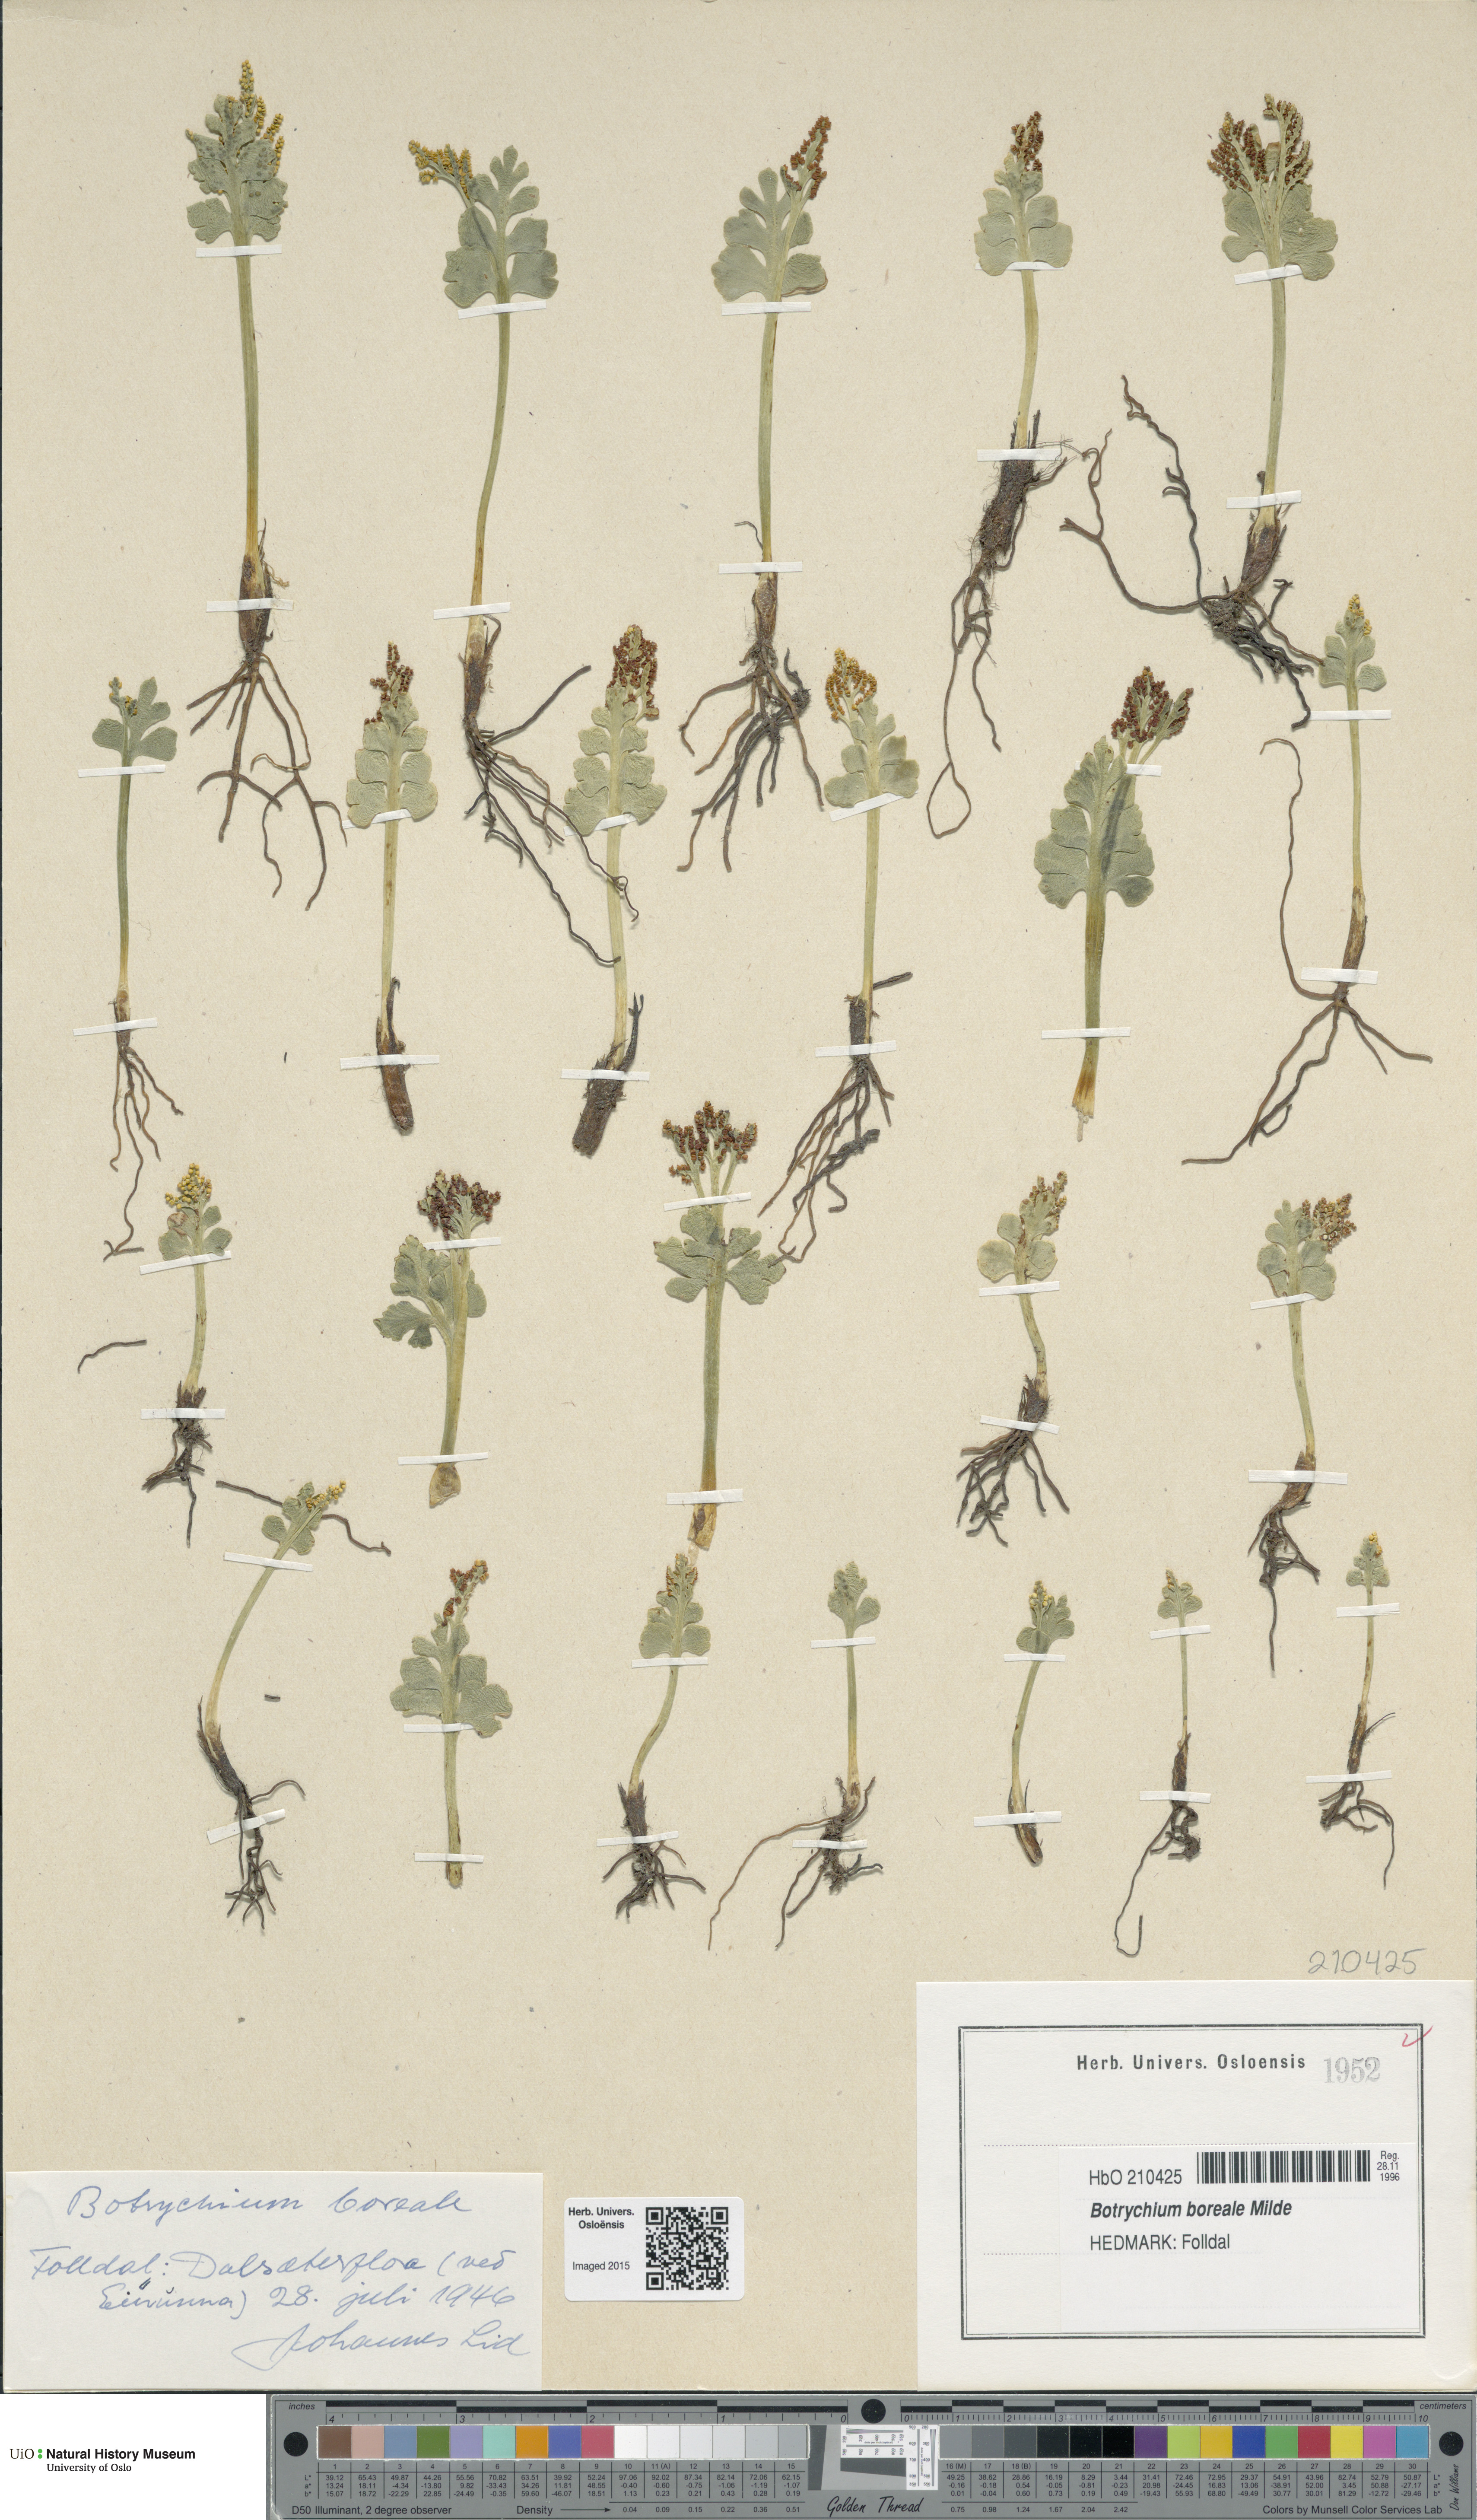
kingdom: Plantae
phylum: Tracheophyta
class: Polypodiopsida
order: Ophioglossales
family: Ophioglossaceae
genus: Botrychium
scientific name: Botrychium boreale
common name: Boreal moonwort
